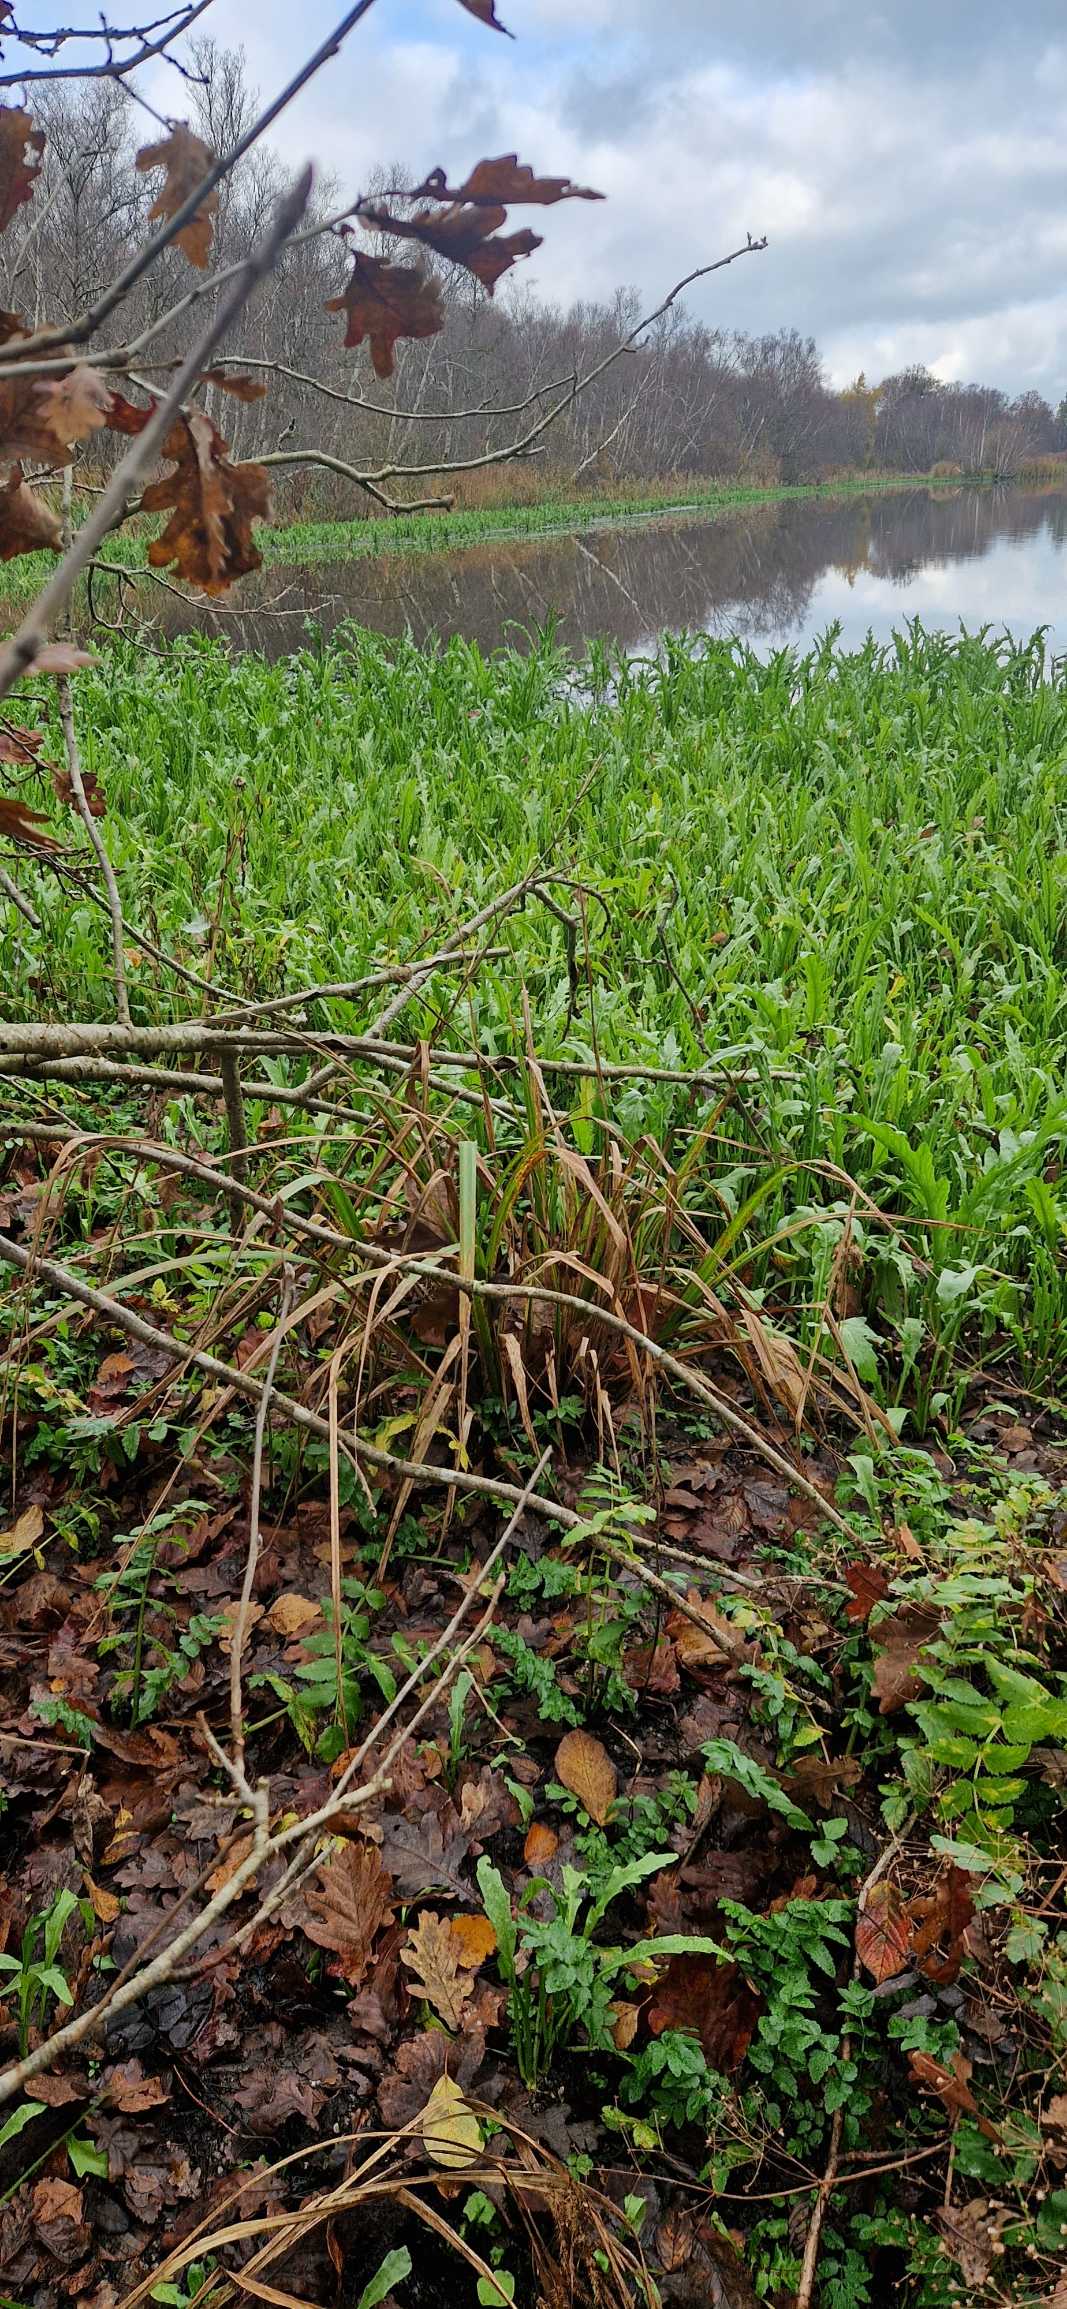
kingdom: Plantae
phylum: Tracheophyta
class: Magnoliopsida
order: Asterales
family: Asteraceae
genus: Tephroseris
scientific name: Tephroseris palustris
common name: Kær-fnokurt
